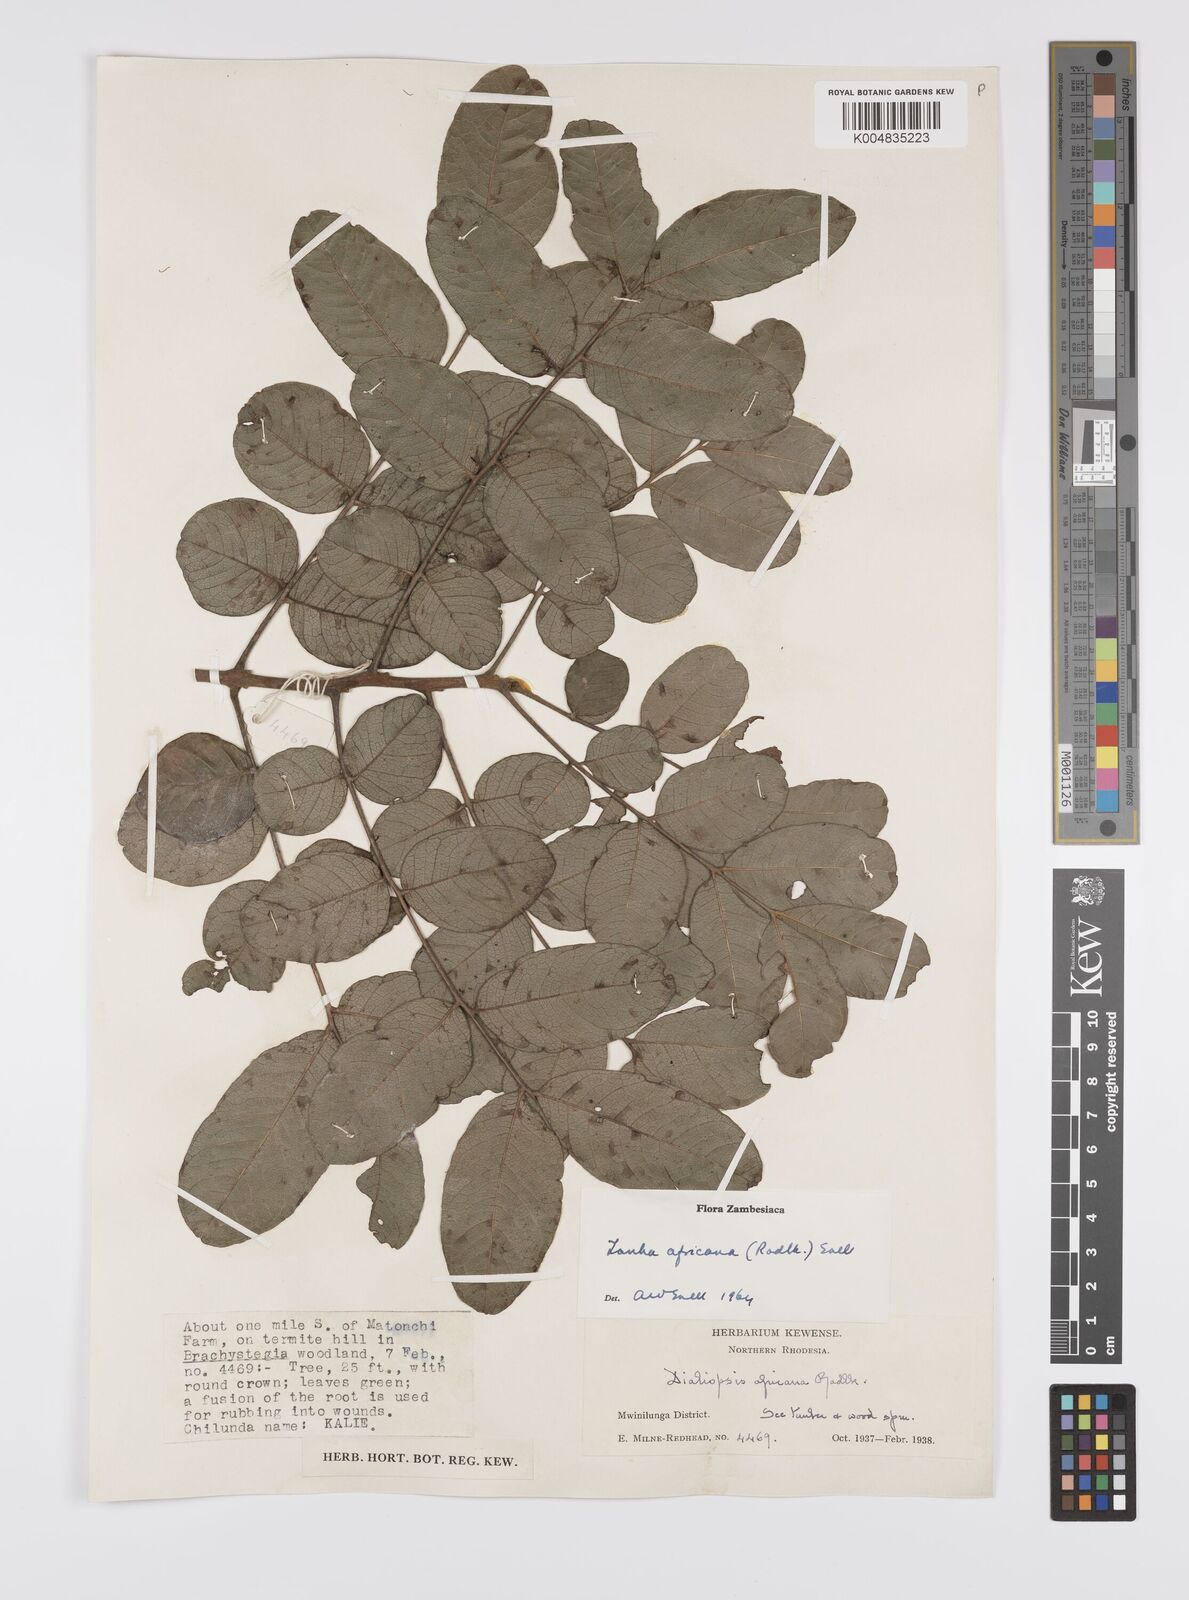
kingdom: Plantae
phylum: Tracheophyta
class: Magnoliopsida
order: Sapindales
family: Sapindaceae
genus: Zanha
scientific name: Zanha africana
